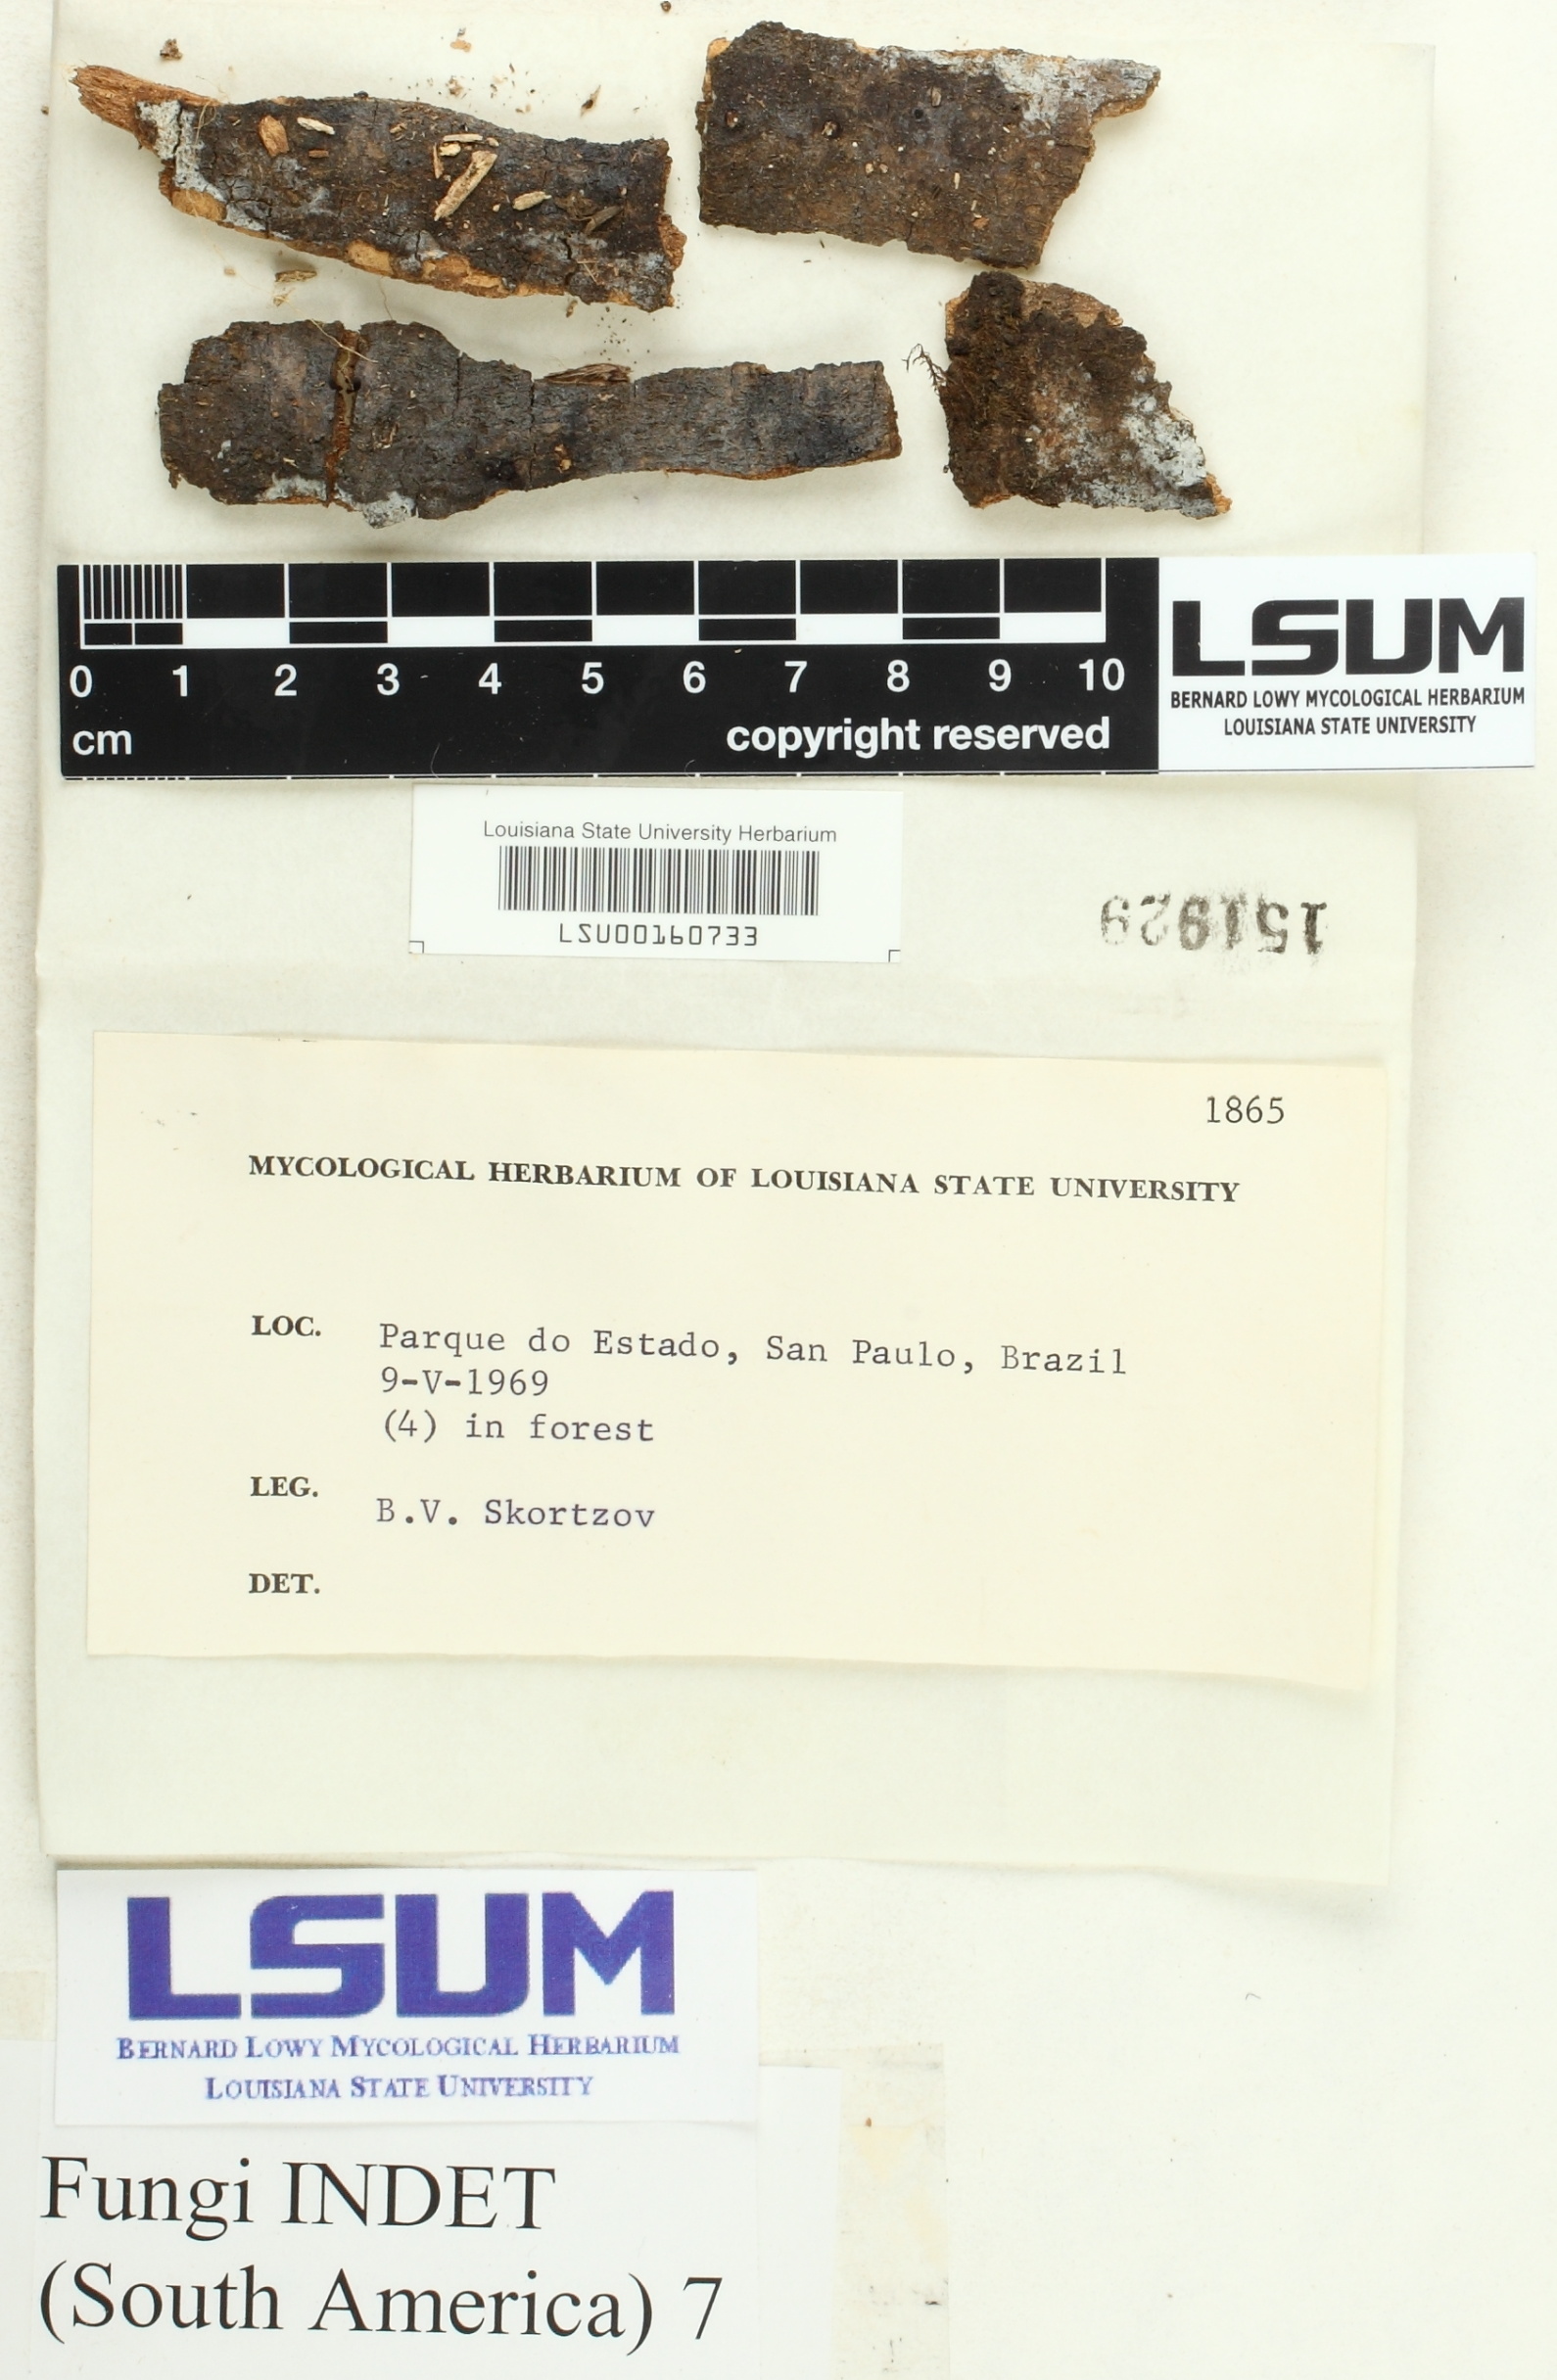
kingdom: Fungi
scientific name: Fungi
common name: Fungi
